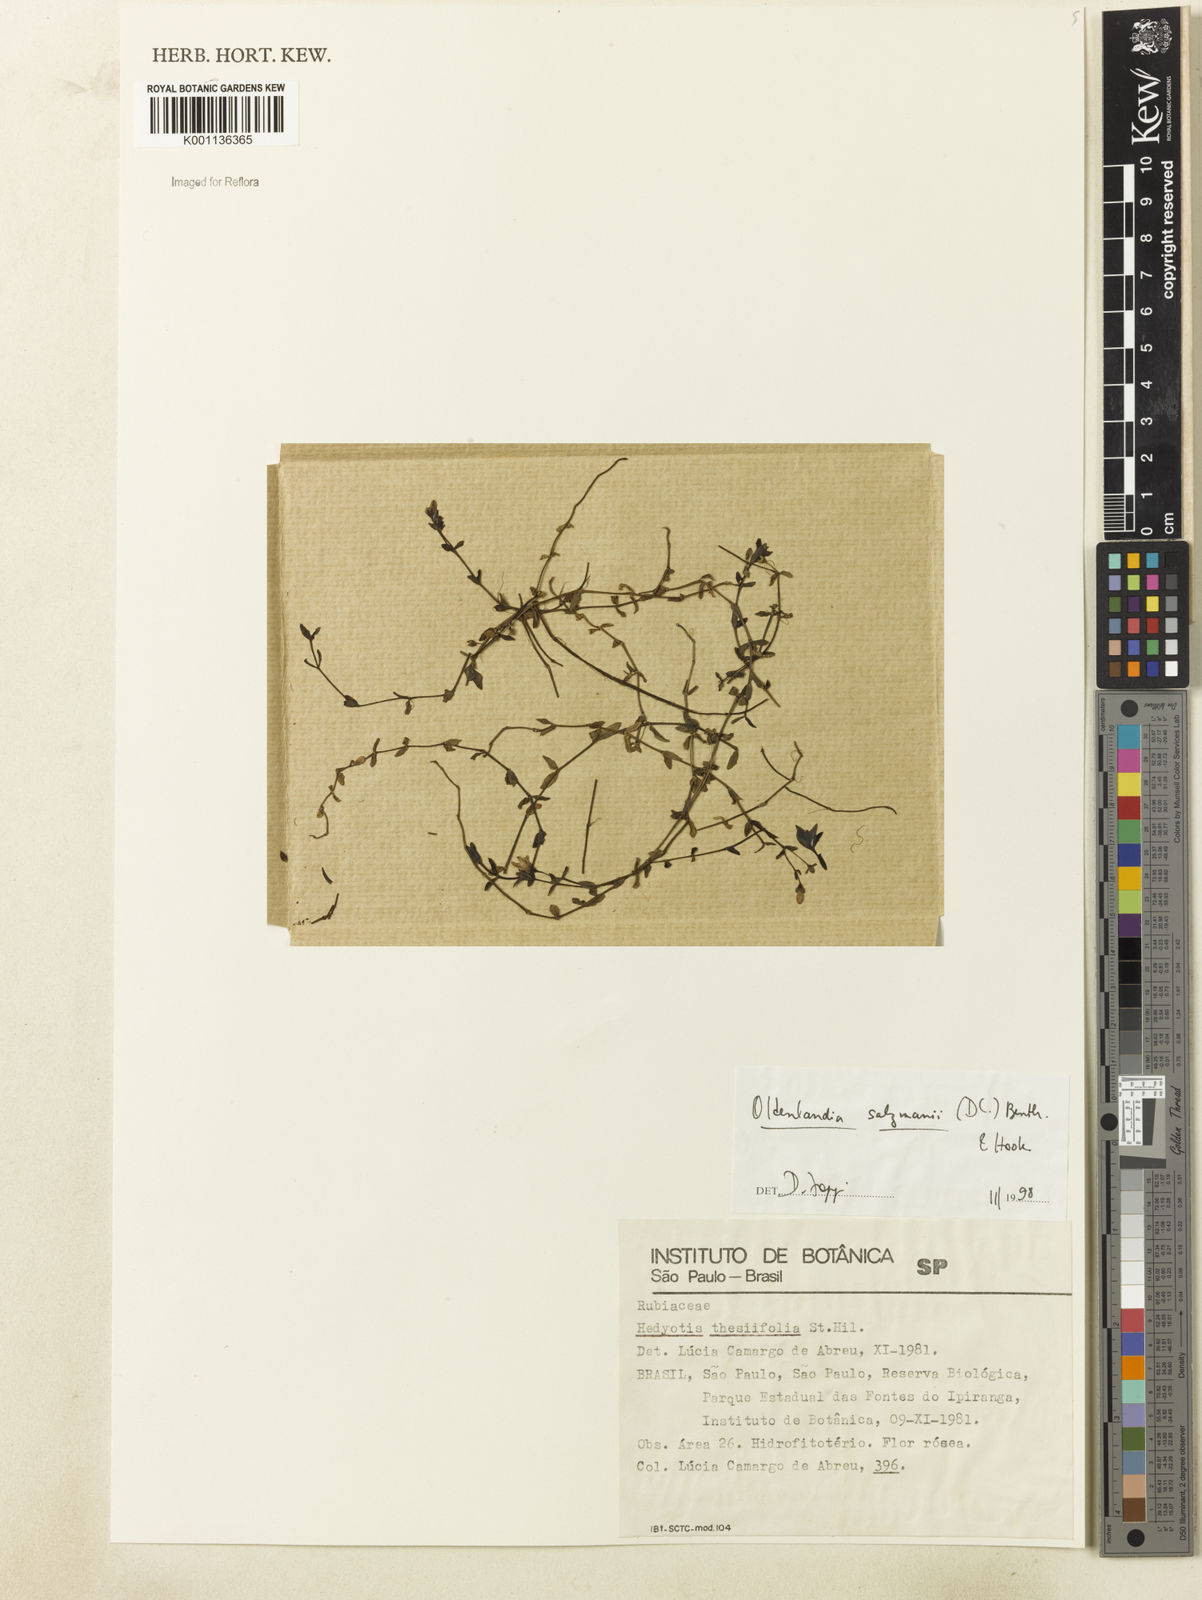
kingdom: Plantae
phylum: Tracheophyta
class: Magnoliopsida
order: Gentianales
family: Rubiaceae
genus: Oldenlandia
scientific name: Oldenlandia salzmannii
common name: Salzmann's mille graines
